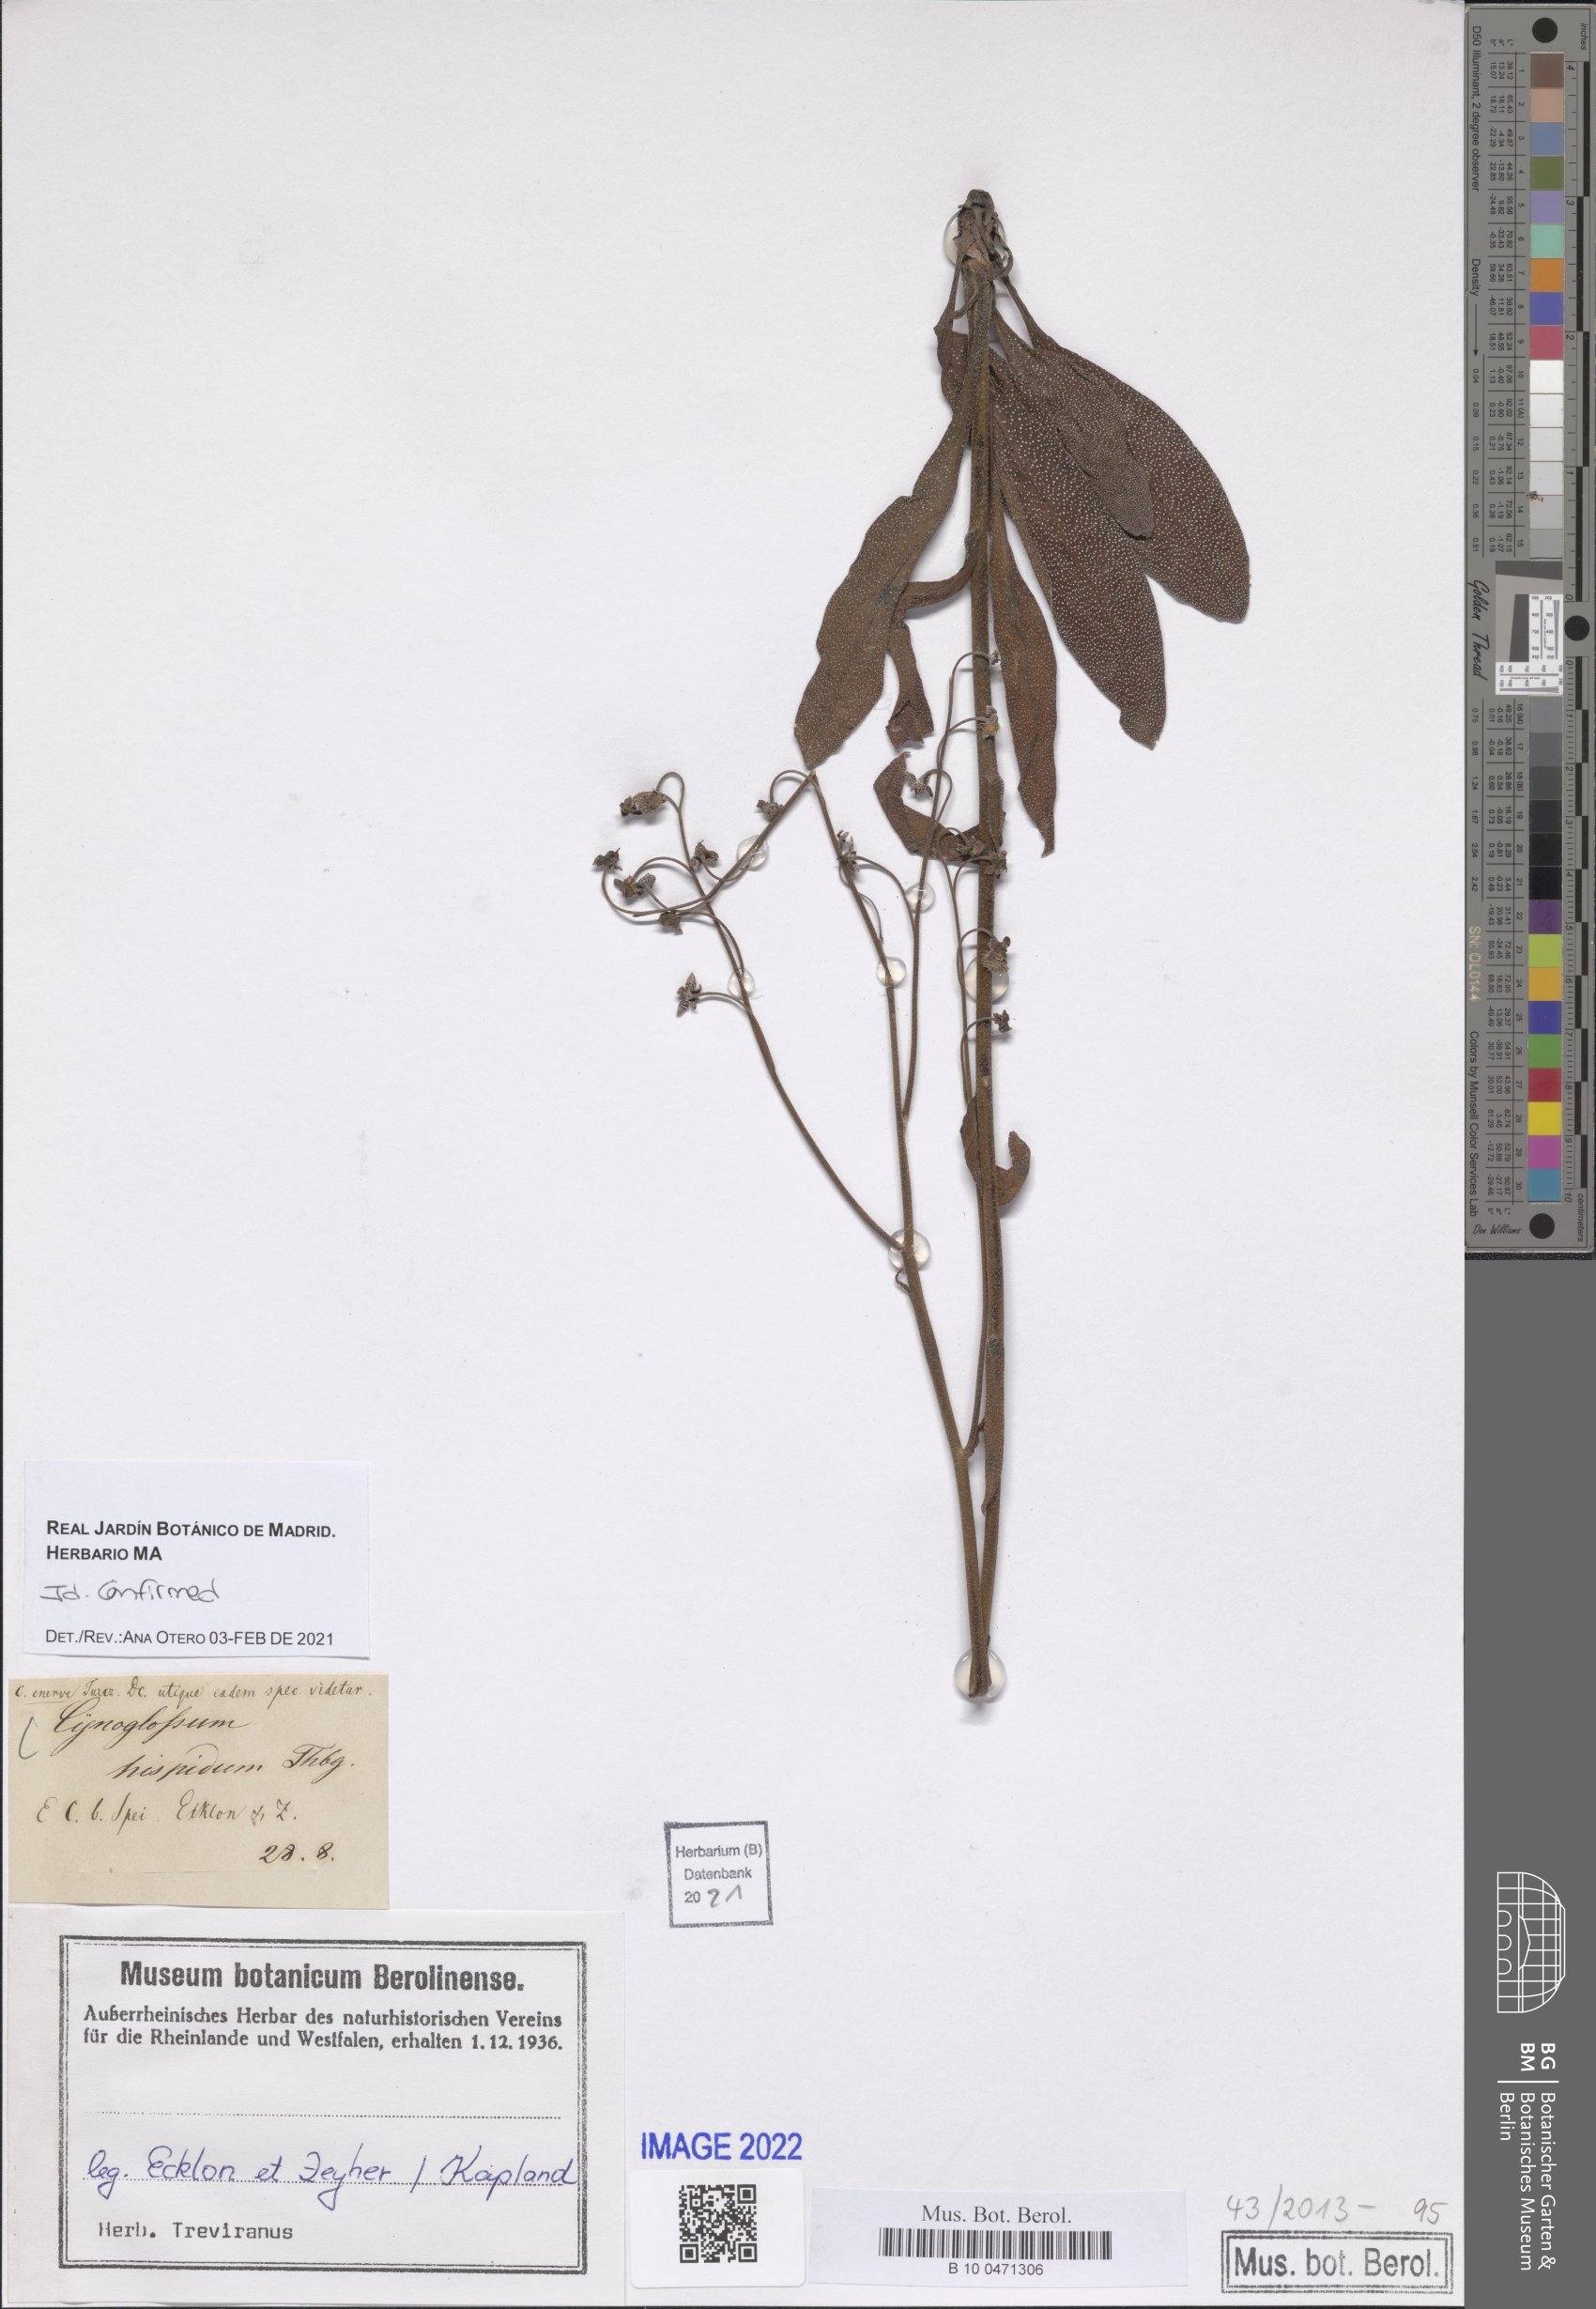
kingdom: Plantae
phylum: Tracheophyta
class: Magnoliopsida
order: Boraginales
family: Boraginaceae
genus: Cynoglossum
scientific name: Cynoglossum hispidum
